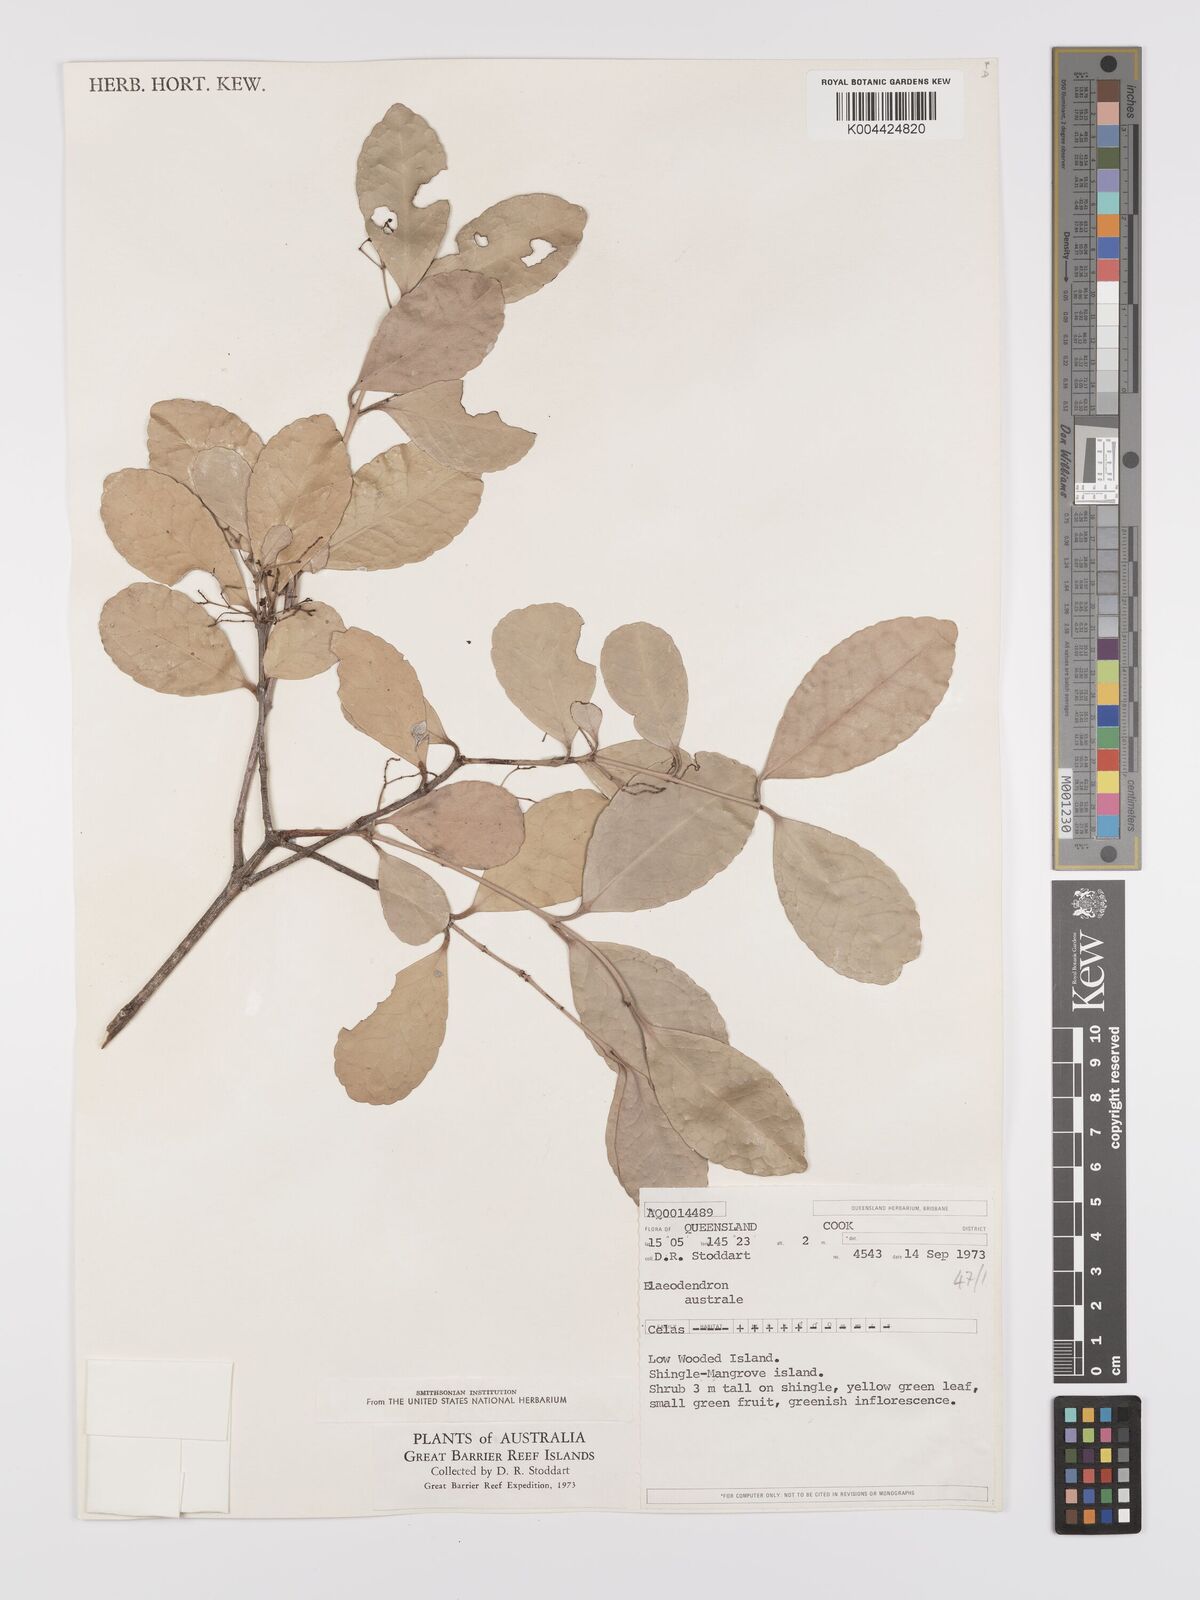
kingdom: Plantae
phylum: Tracheophyta
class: Magnoliopsida
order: Celastrales
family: Celastraceae
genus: Elaeodendron
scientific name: Elaeodendron australe
